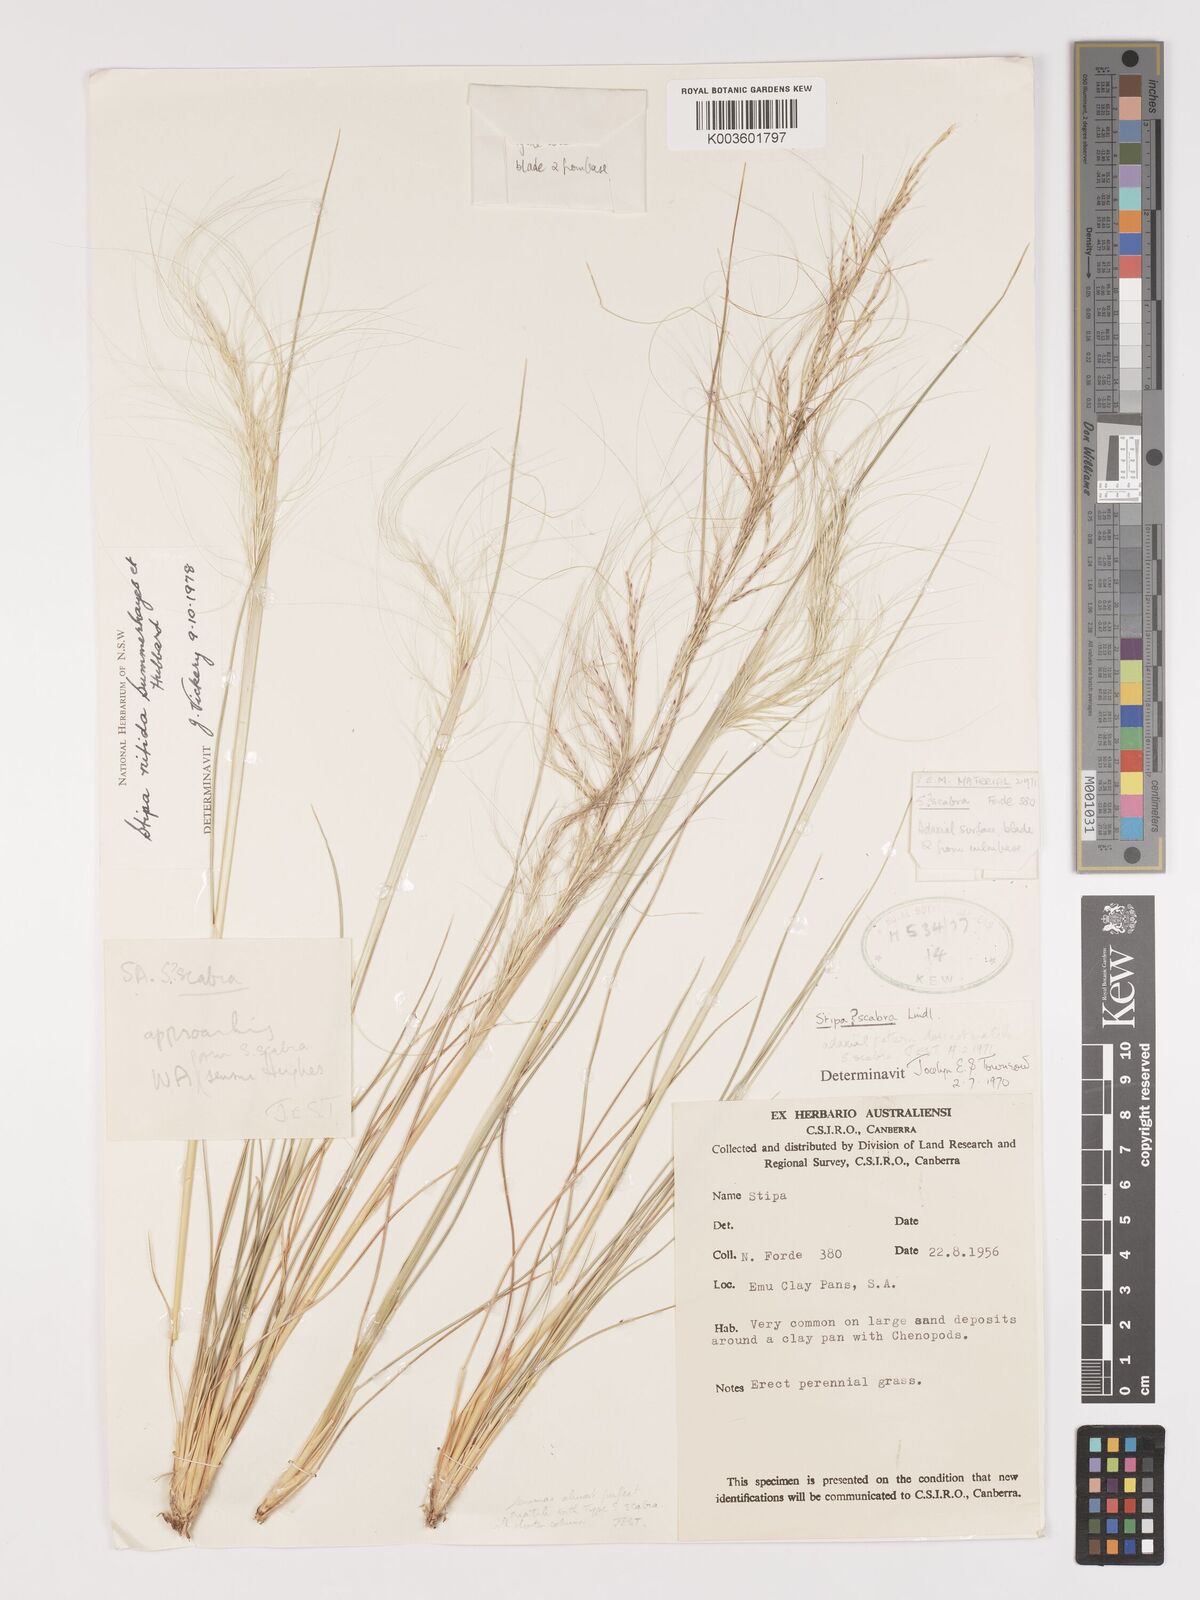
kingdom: Plantae
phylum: Tracheophyta
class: Liliopsida
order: Poales
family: Poaceae
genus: Austrostipa
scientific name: Austrostipa nitida
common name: Balcarra grass
